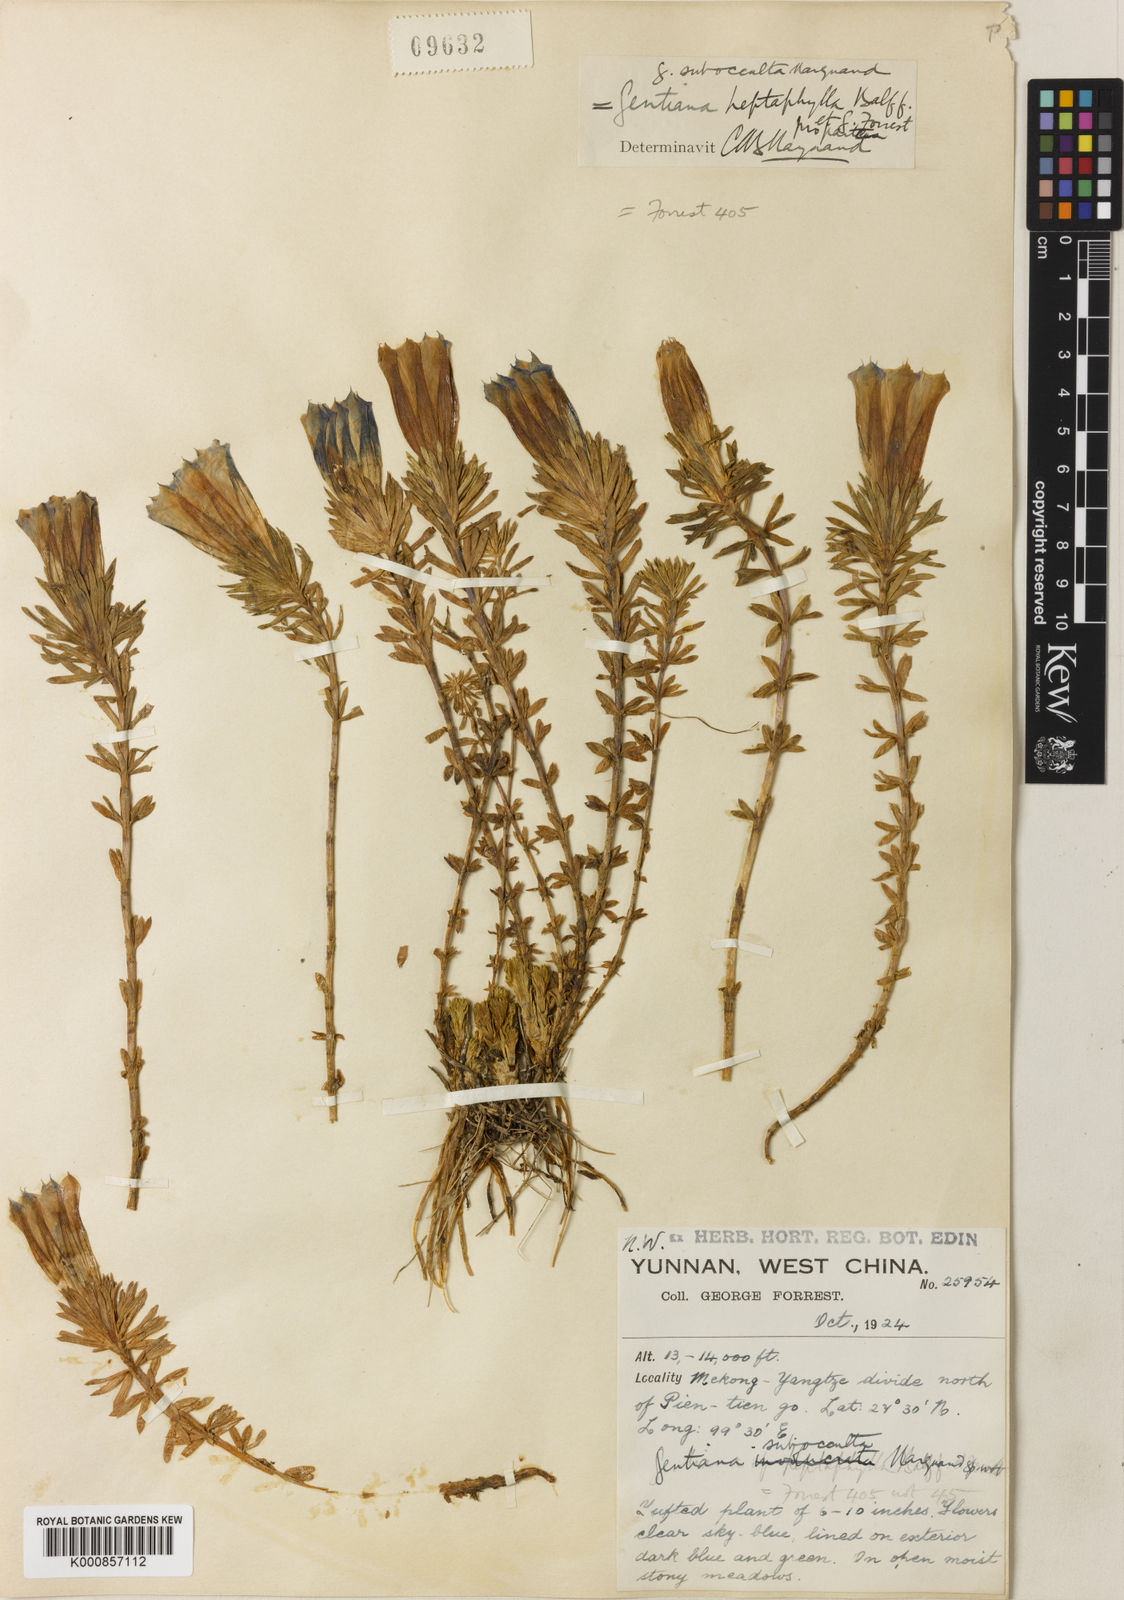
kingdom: Plantae
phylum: Tracheophyta
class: Magnoliopsida
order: Gentianales
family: Gentianaceae
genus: Gentiana
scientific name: Gentiana arethusae
